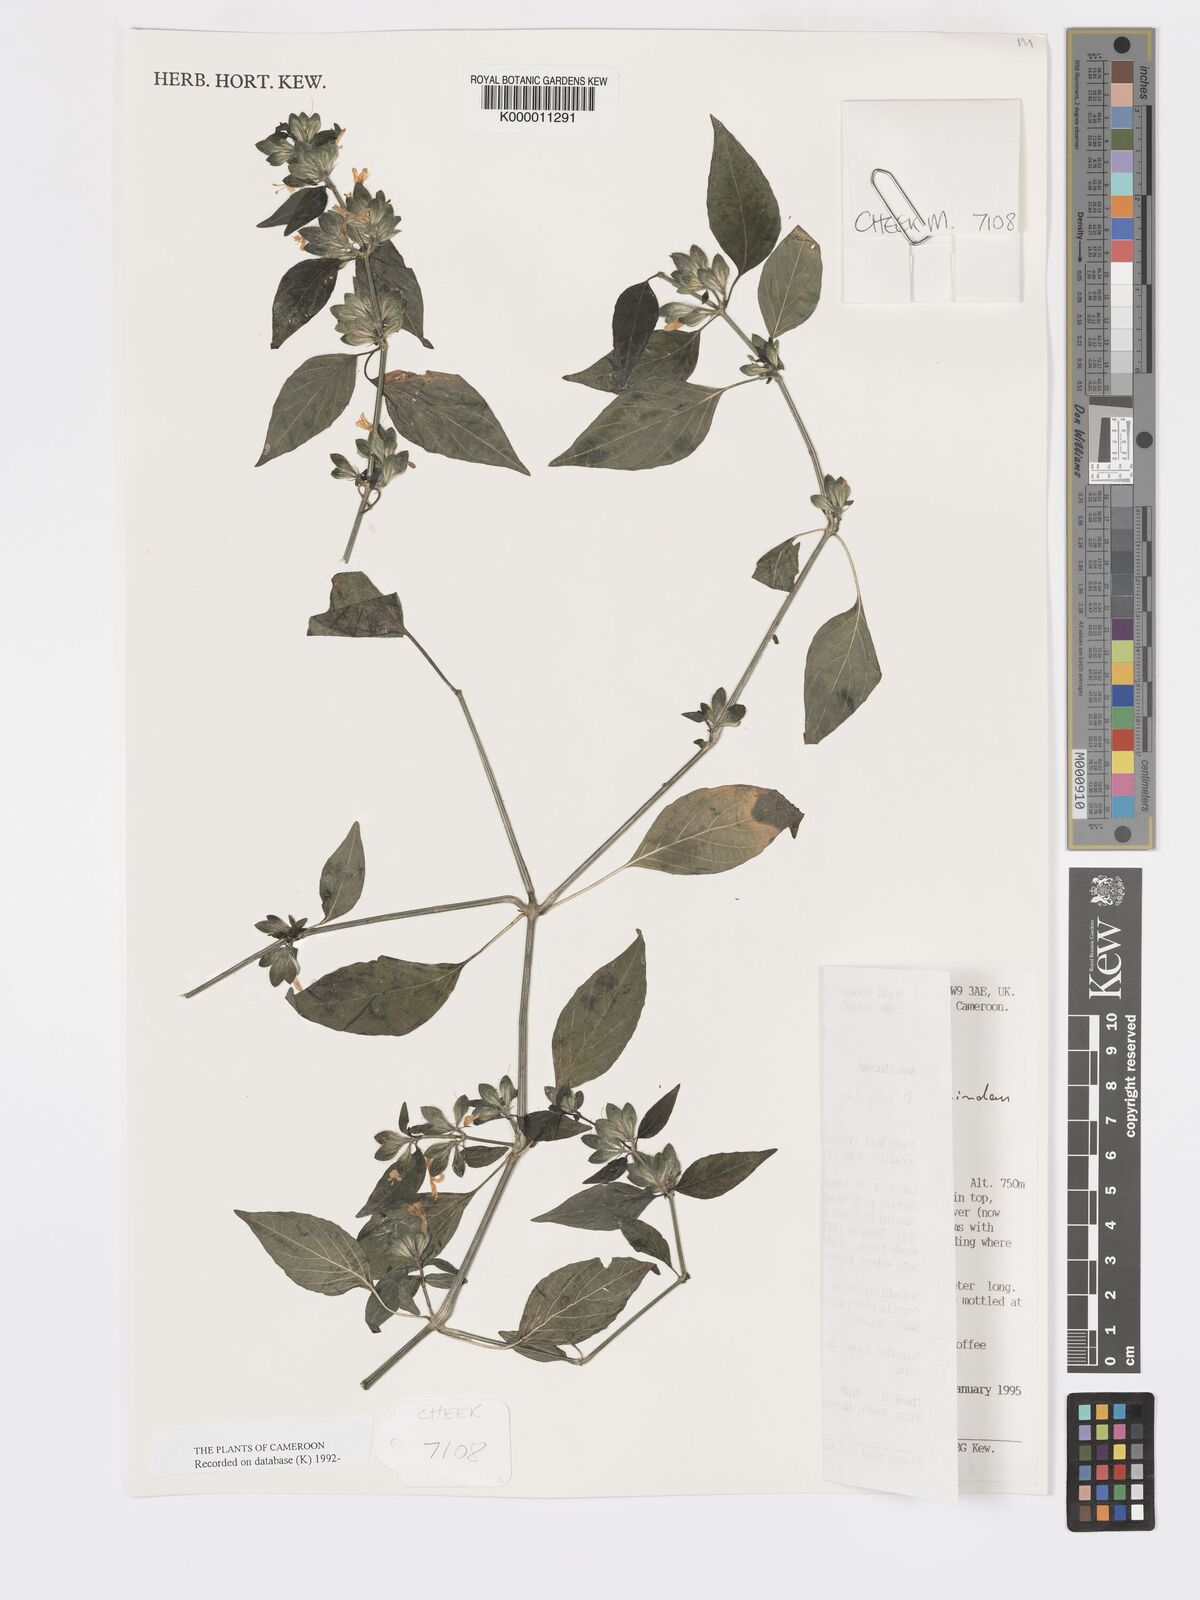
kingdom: Plantae
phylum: Tracheophyta
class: Magnoliopsida
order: Lamiales
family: Acanthaceae
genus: Dicliptera
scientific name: Dicliptera maculata
